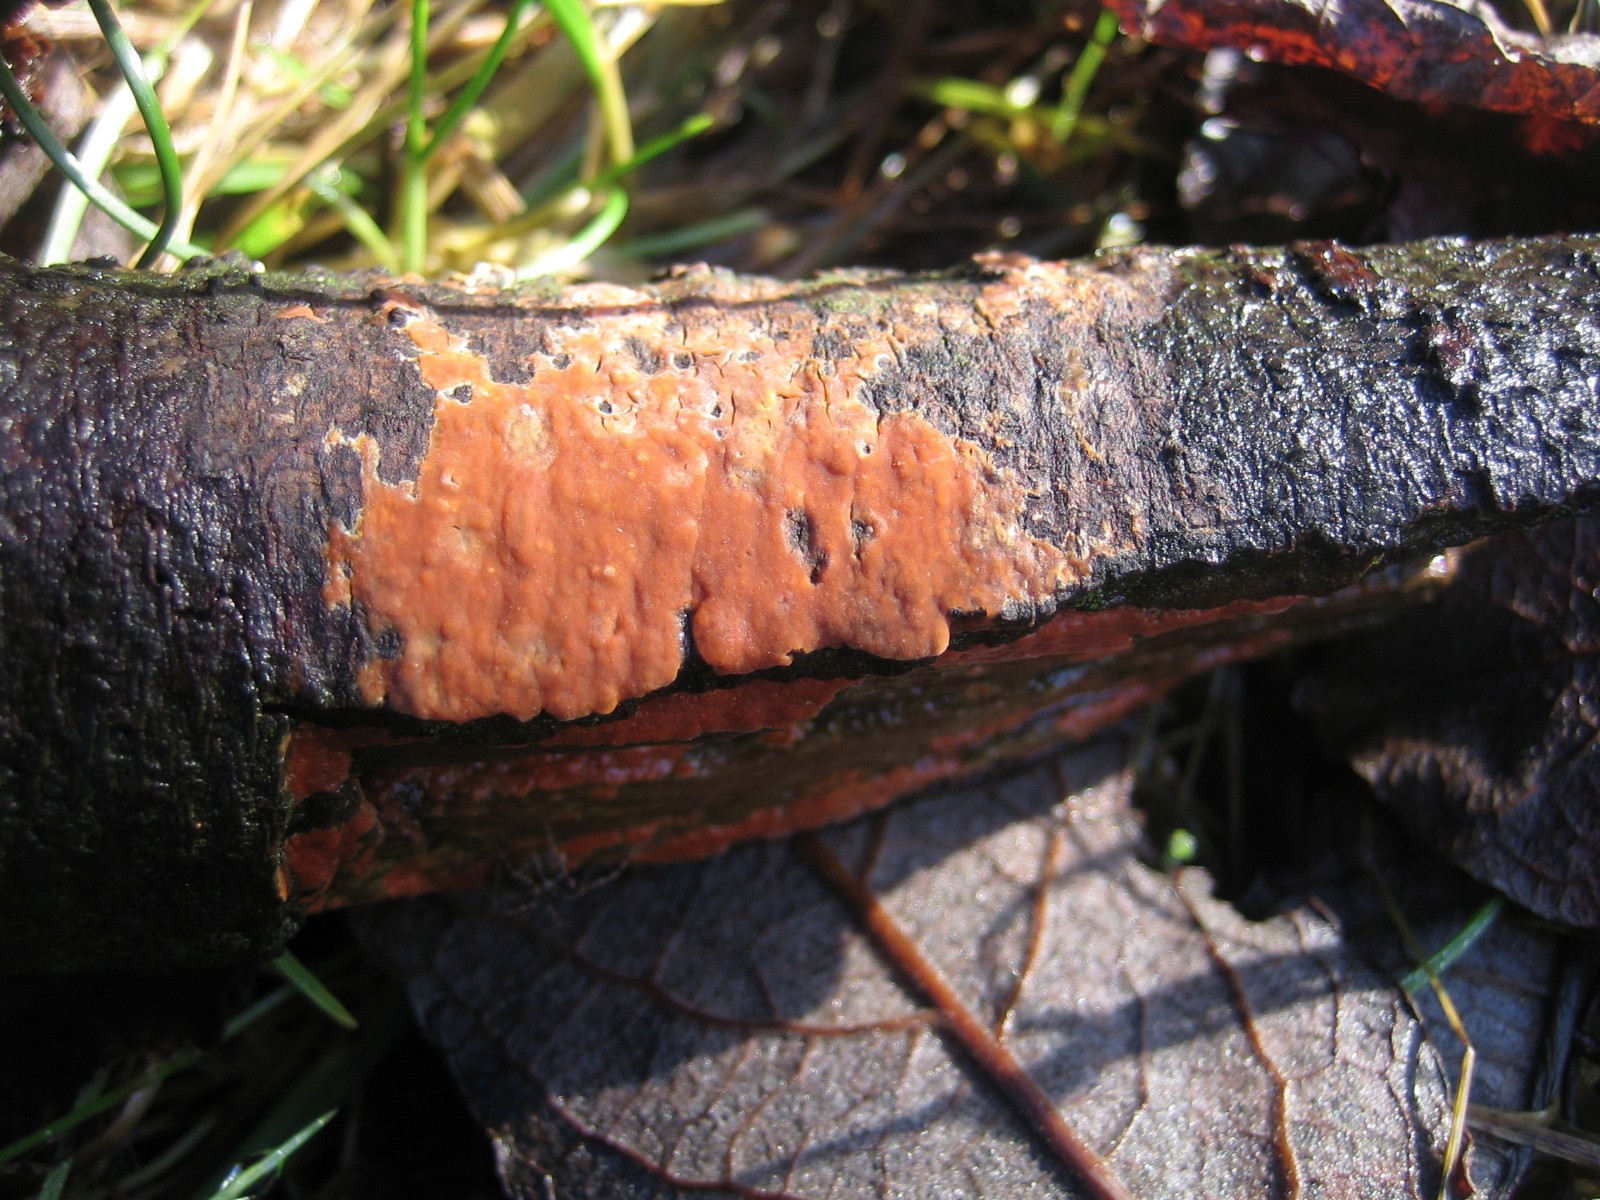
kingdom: Fungi
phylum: Basidiomycota
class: Agaricomycetes
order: Russulales
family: Peniophoraceae
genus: Peniophora
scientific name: Peniophora incarnata
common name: laksefarvet voksskind
